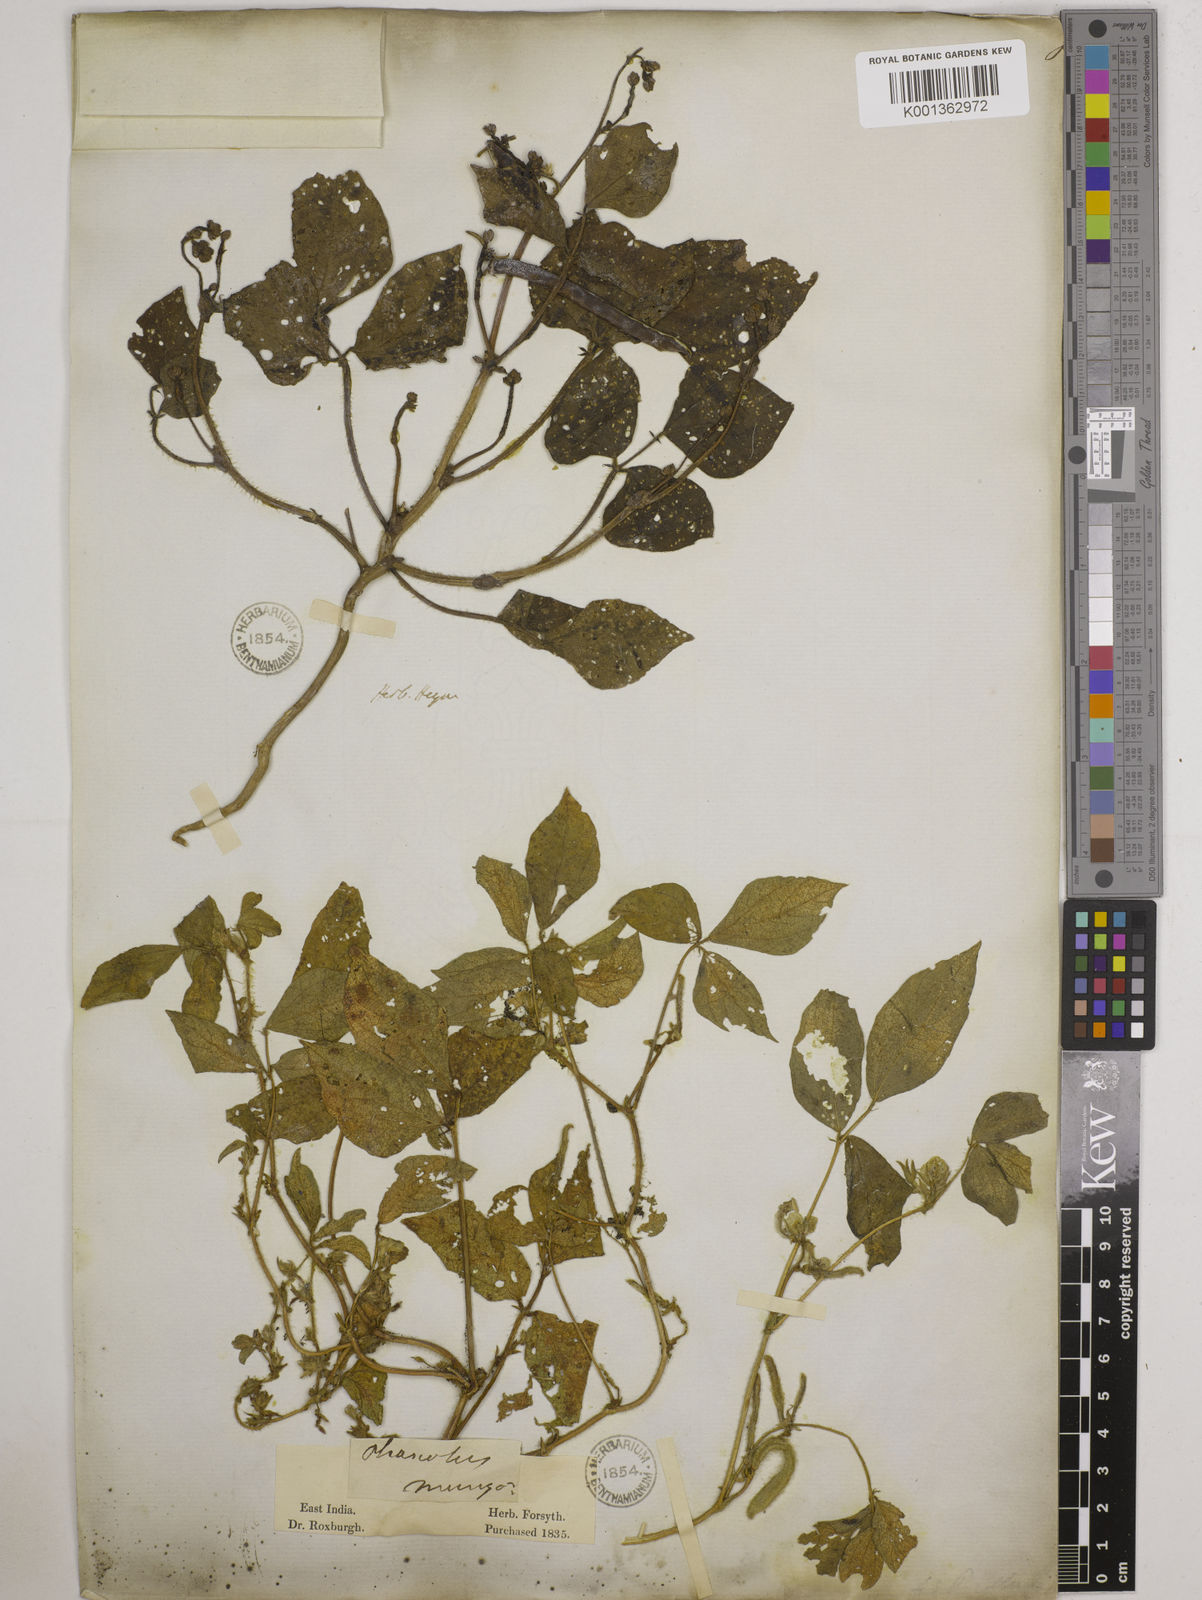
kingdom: Plantae
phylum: Tracheophyta
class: Magnoliopsida
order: Fabales
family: Fabaceae
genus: Vigna
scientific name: Vigna mungo
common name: Black gram
